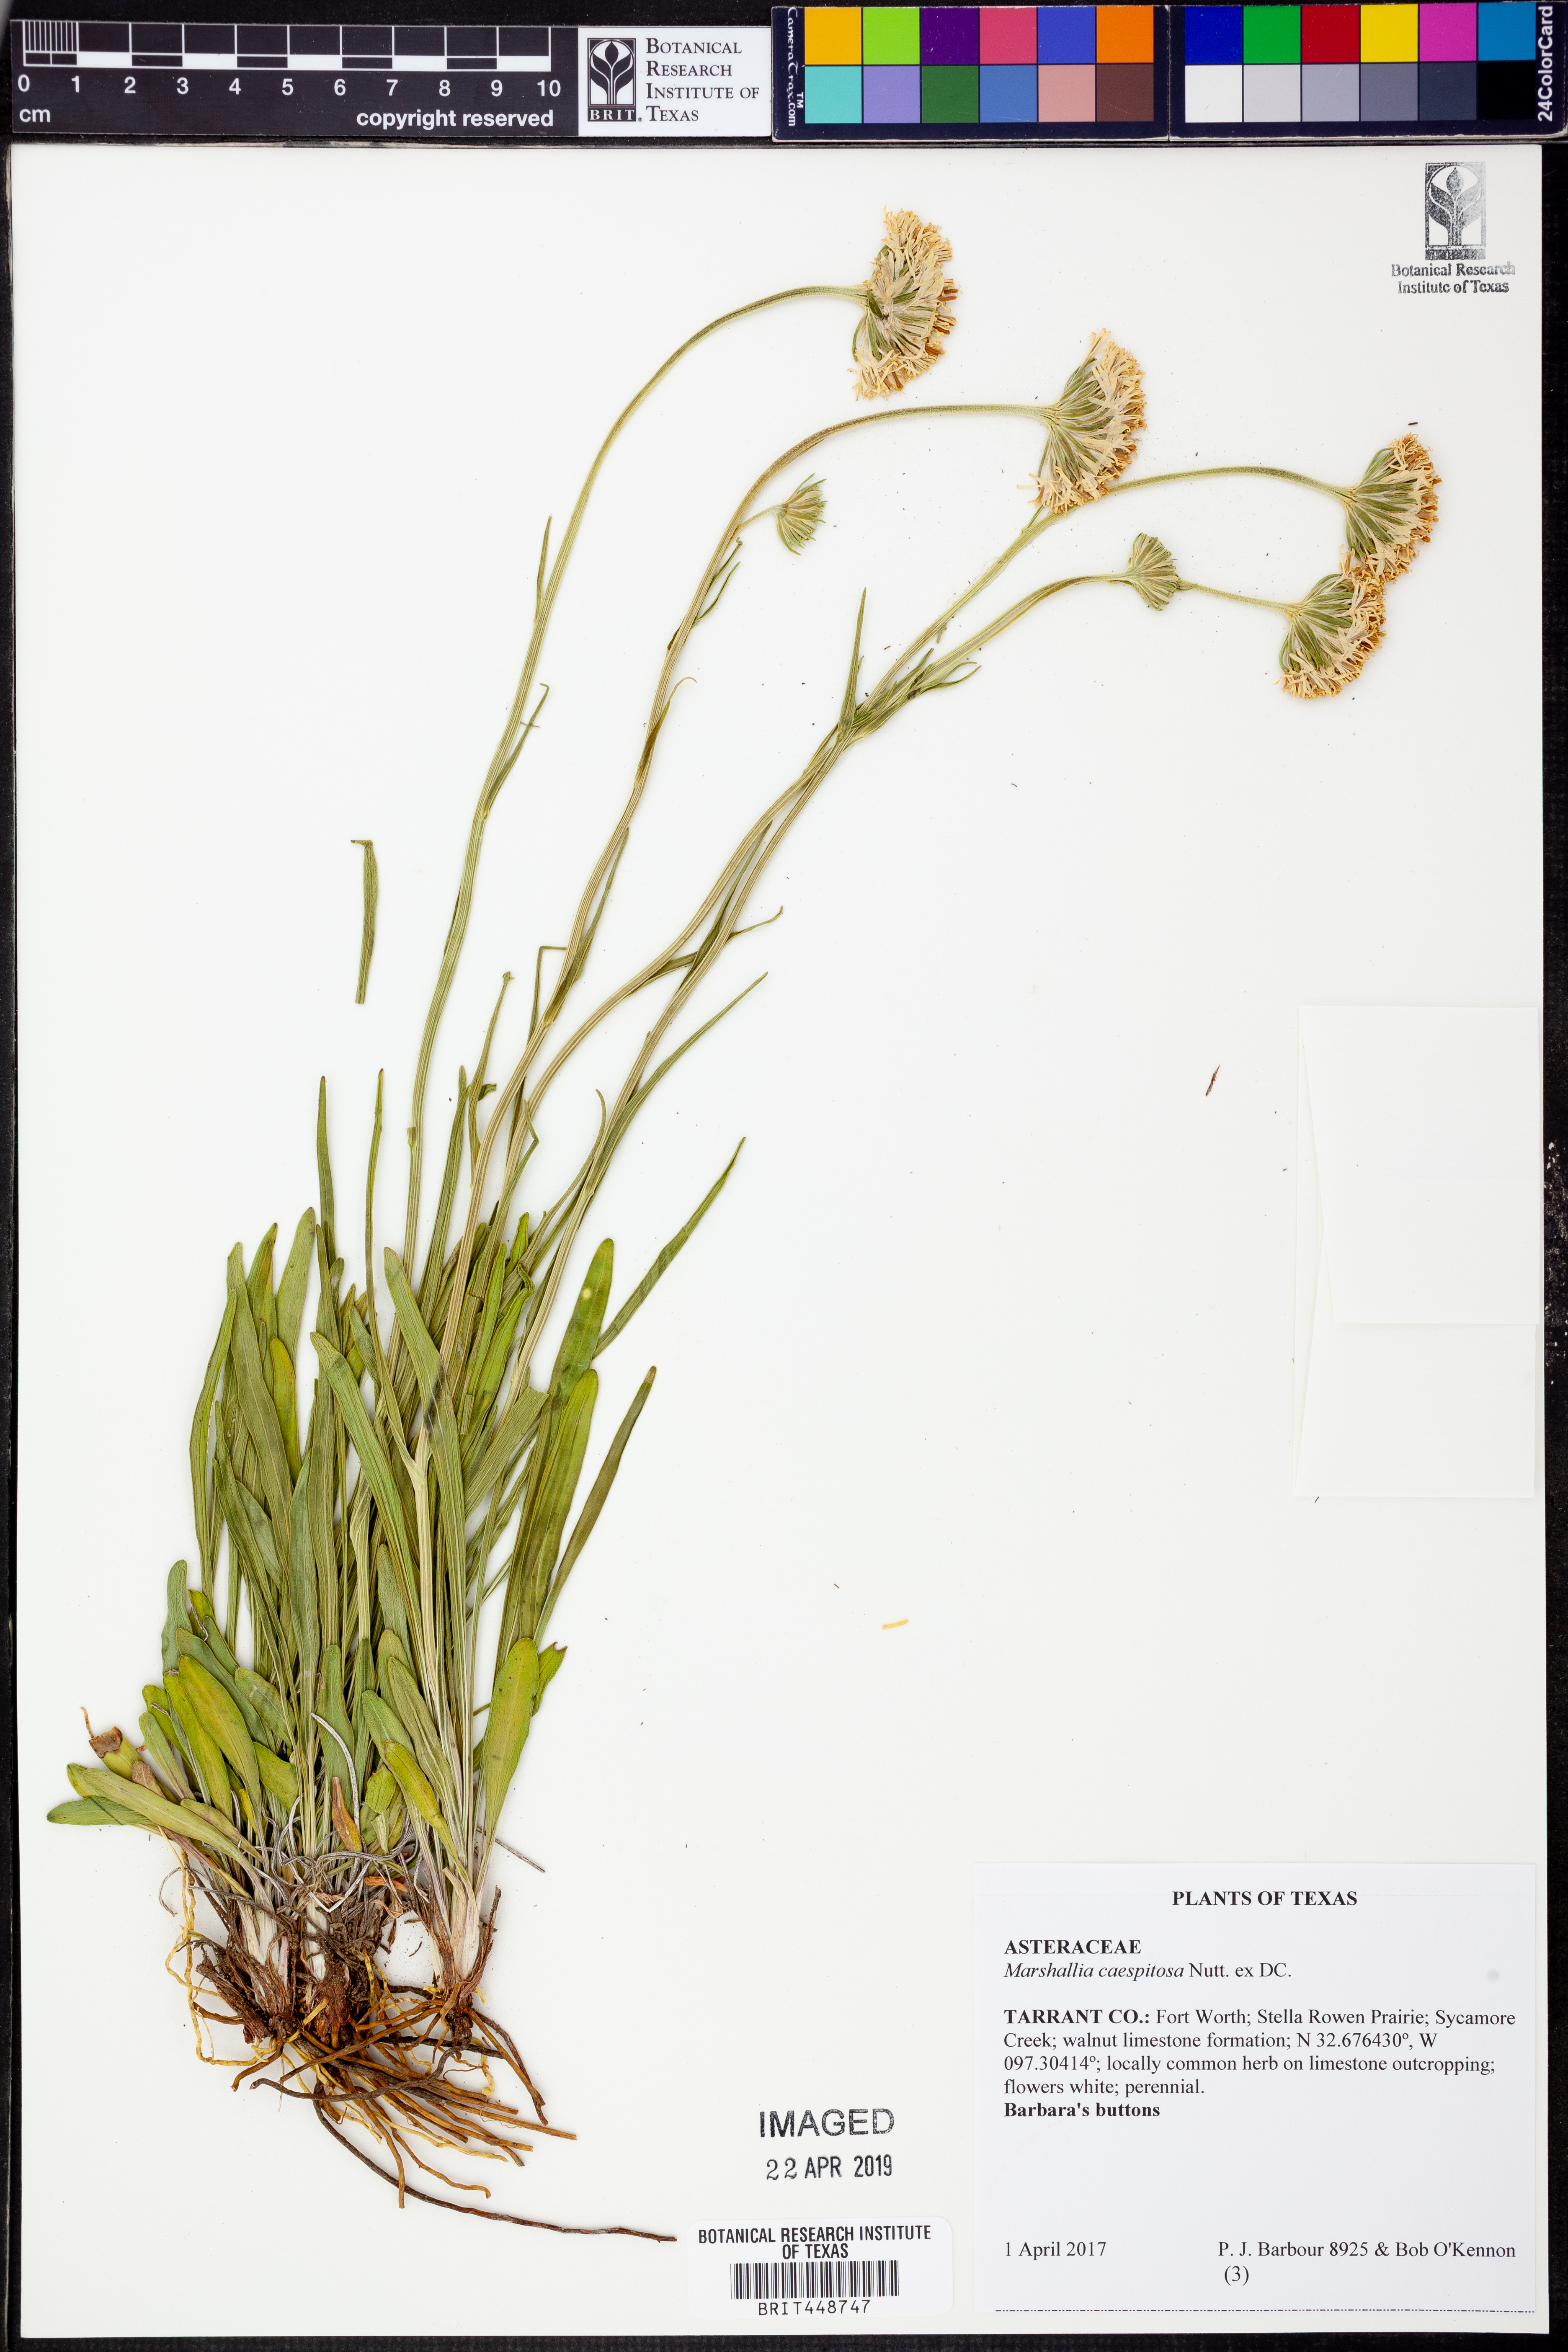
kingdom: Plantae
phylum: Tracheophyta
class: Magnoliopsida
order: Asterales
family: Asteraceae
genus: Marshallia
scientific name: Marshallia caespitosa
